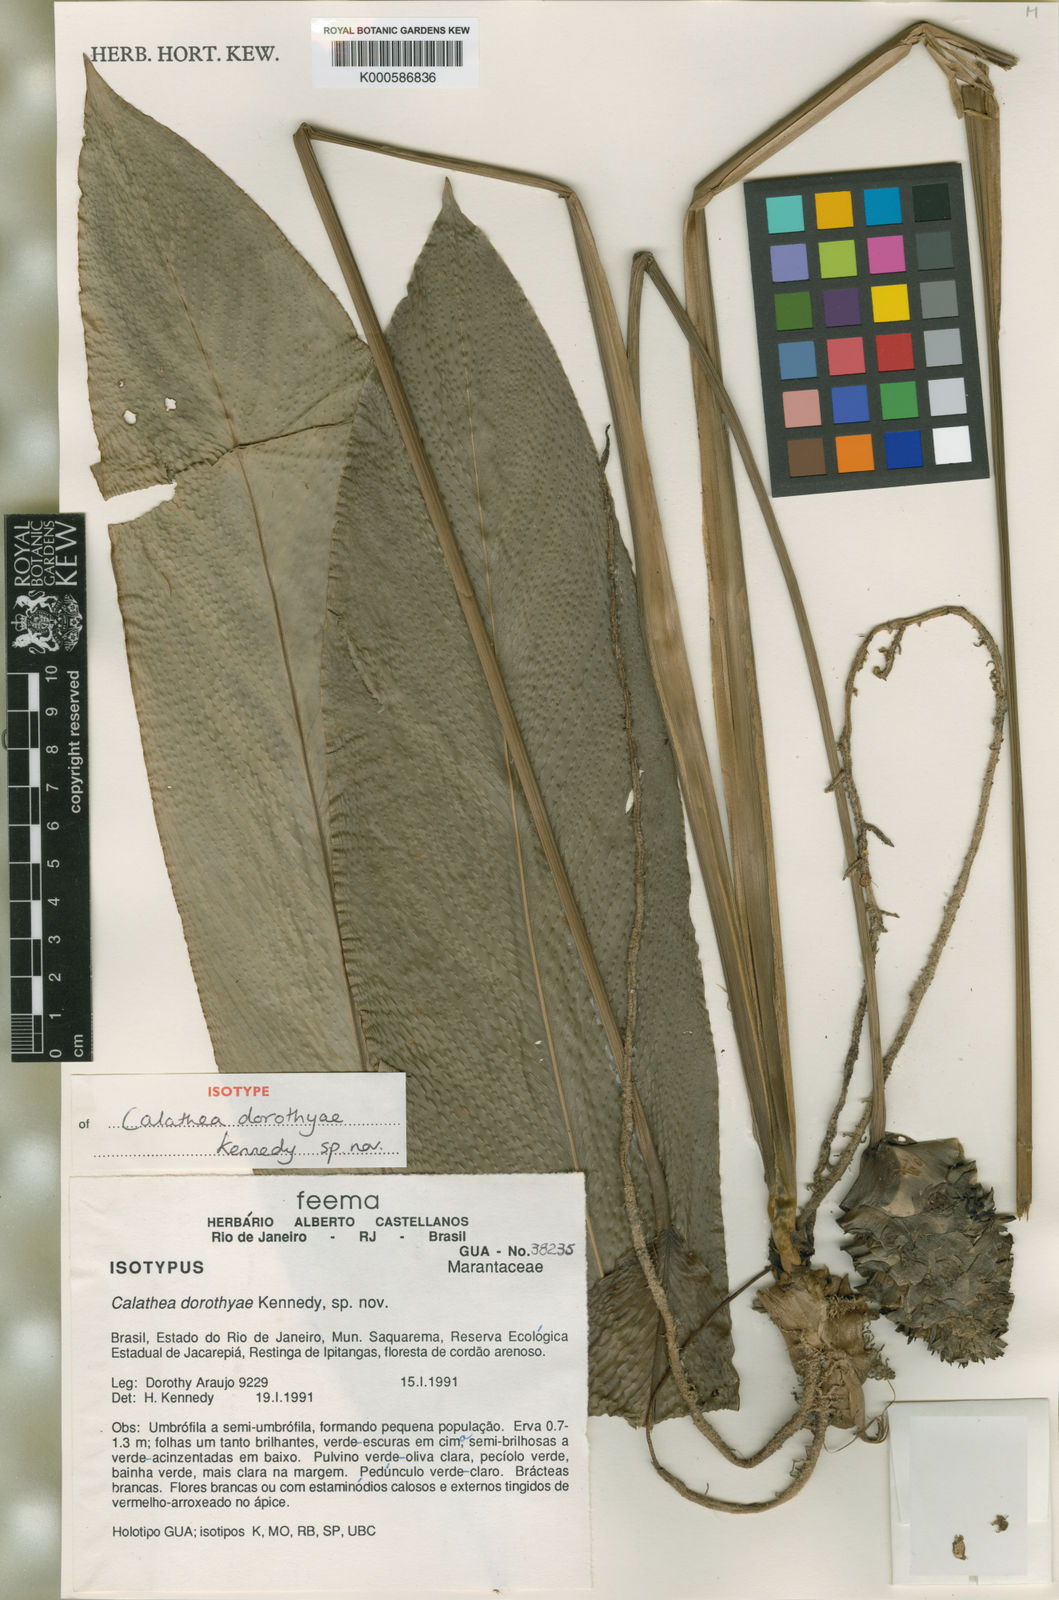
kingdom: Plantae
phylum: Tracheophyta
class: Liliopsida
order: Zingiberales
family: Marantaceae
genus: Goeppertia
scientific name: Goeppertia dorothyae
